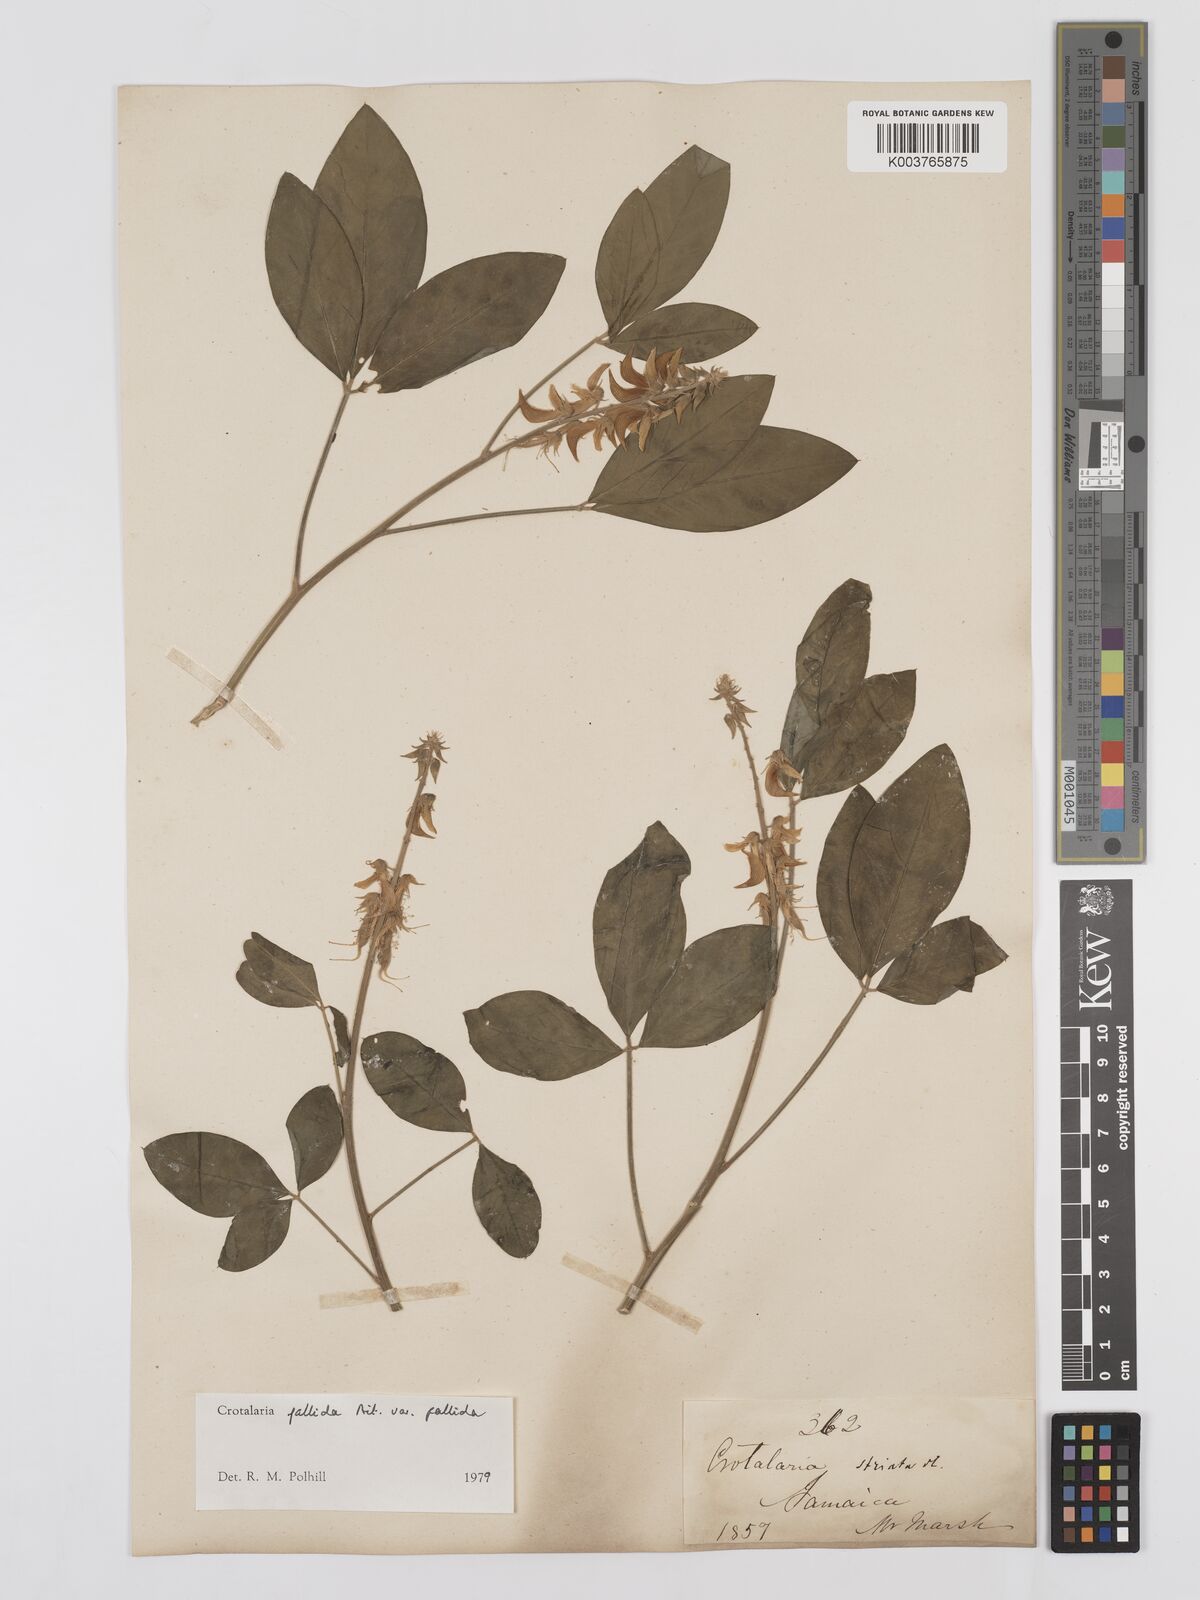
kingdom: Plantae
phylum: Tracheophyta
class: Magnoliopsida
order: Fabales
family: Fabaceae
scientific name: Fabaceae
